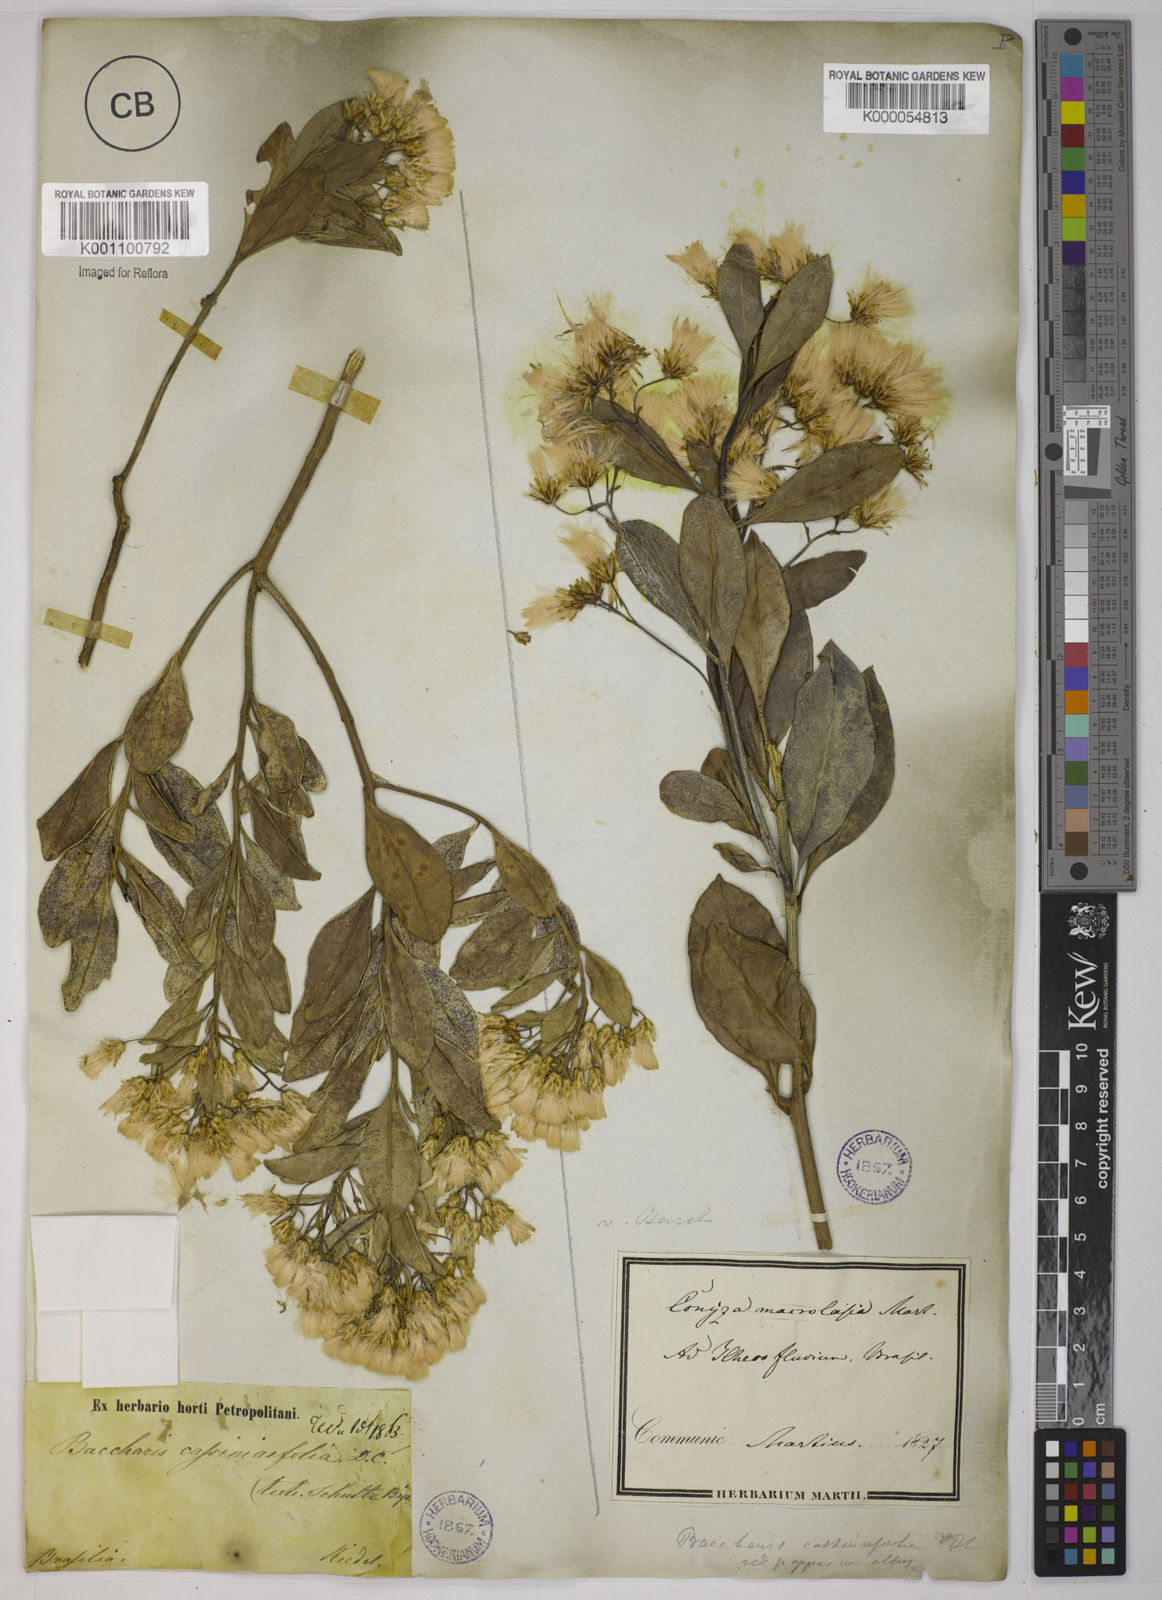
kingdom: Plantae
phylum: Tracheophyta
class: Magnoliopsida
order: Asterales
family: Asteraceae
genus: Baccharis
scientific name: Baccharis singularis
